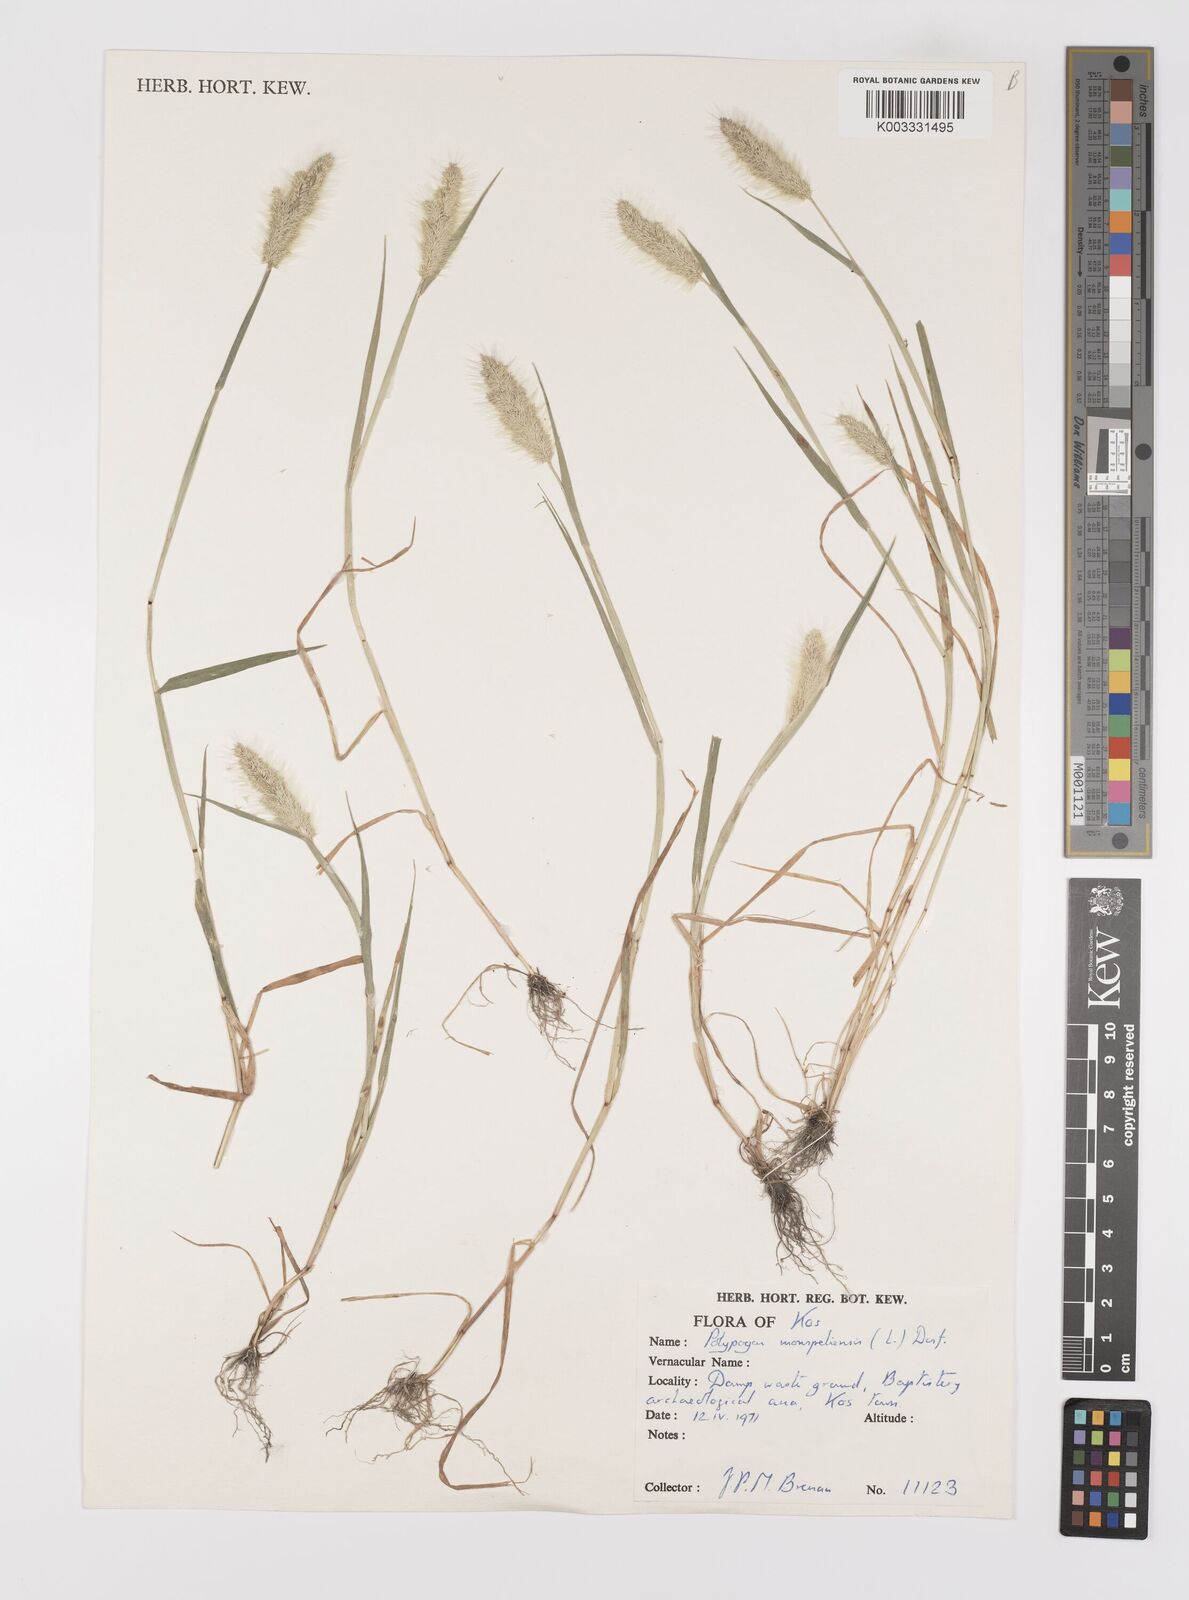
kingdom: Plantae
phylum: Tracheophyta
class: Liliopsida
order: Poales
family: Poaceae
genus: Polypogon
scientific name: Polypogon monspeliensis
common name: Annual rabbitsfoot grass
